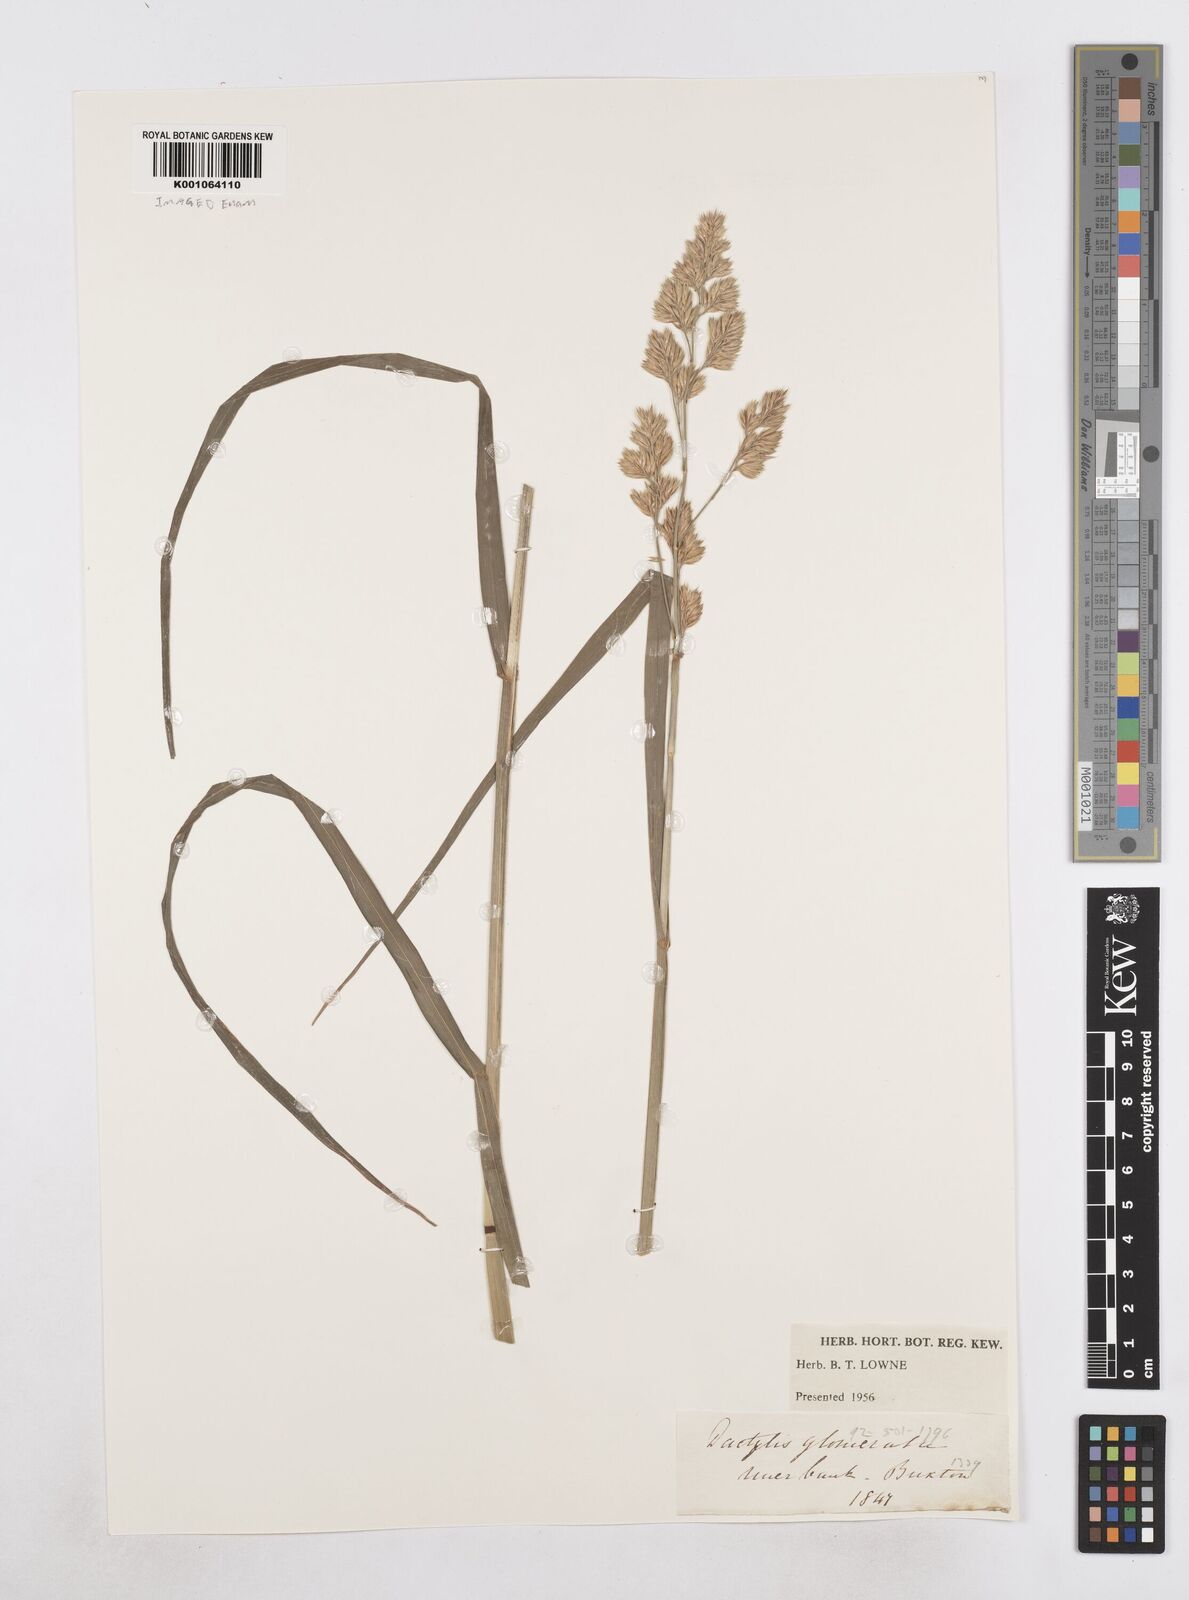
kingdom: Plantae
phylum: Tracheophyta
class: Liliopsida
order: Poales
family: Poaceae
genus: Dactylis
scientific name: Dactylis glomerata
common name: Orchardgrass
